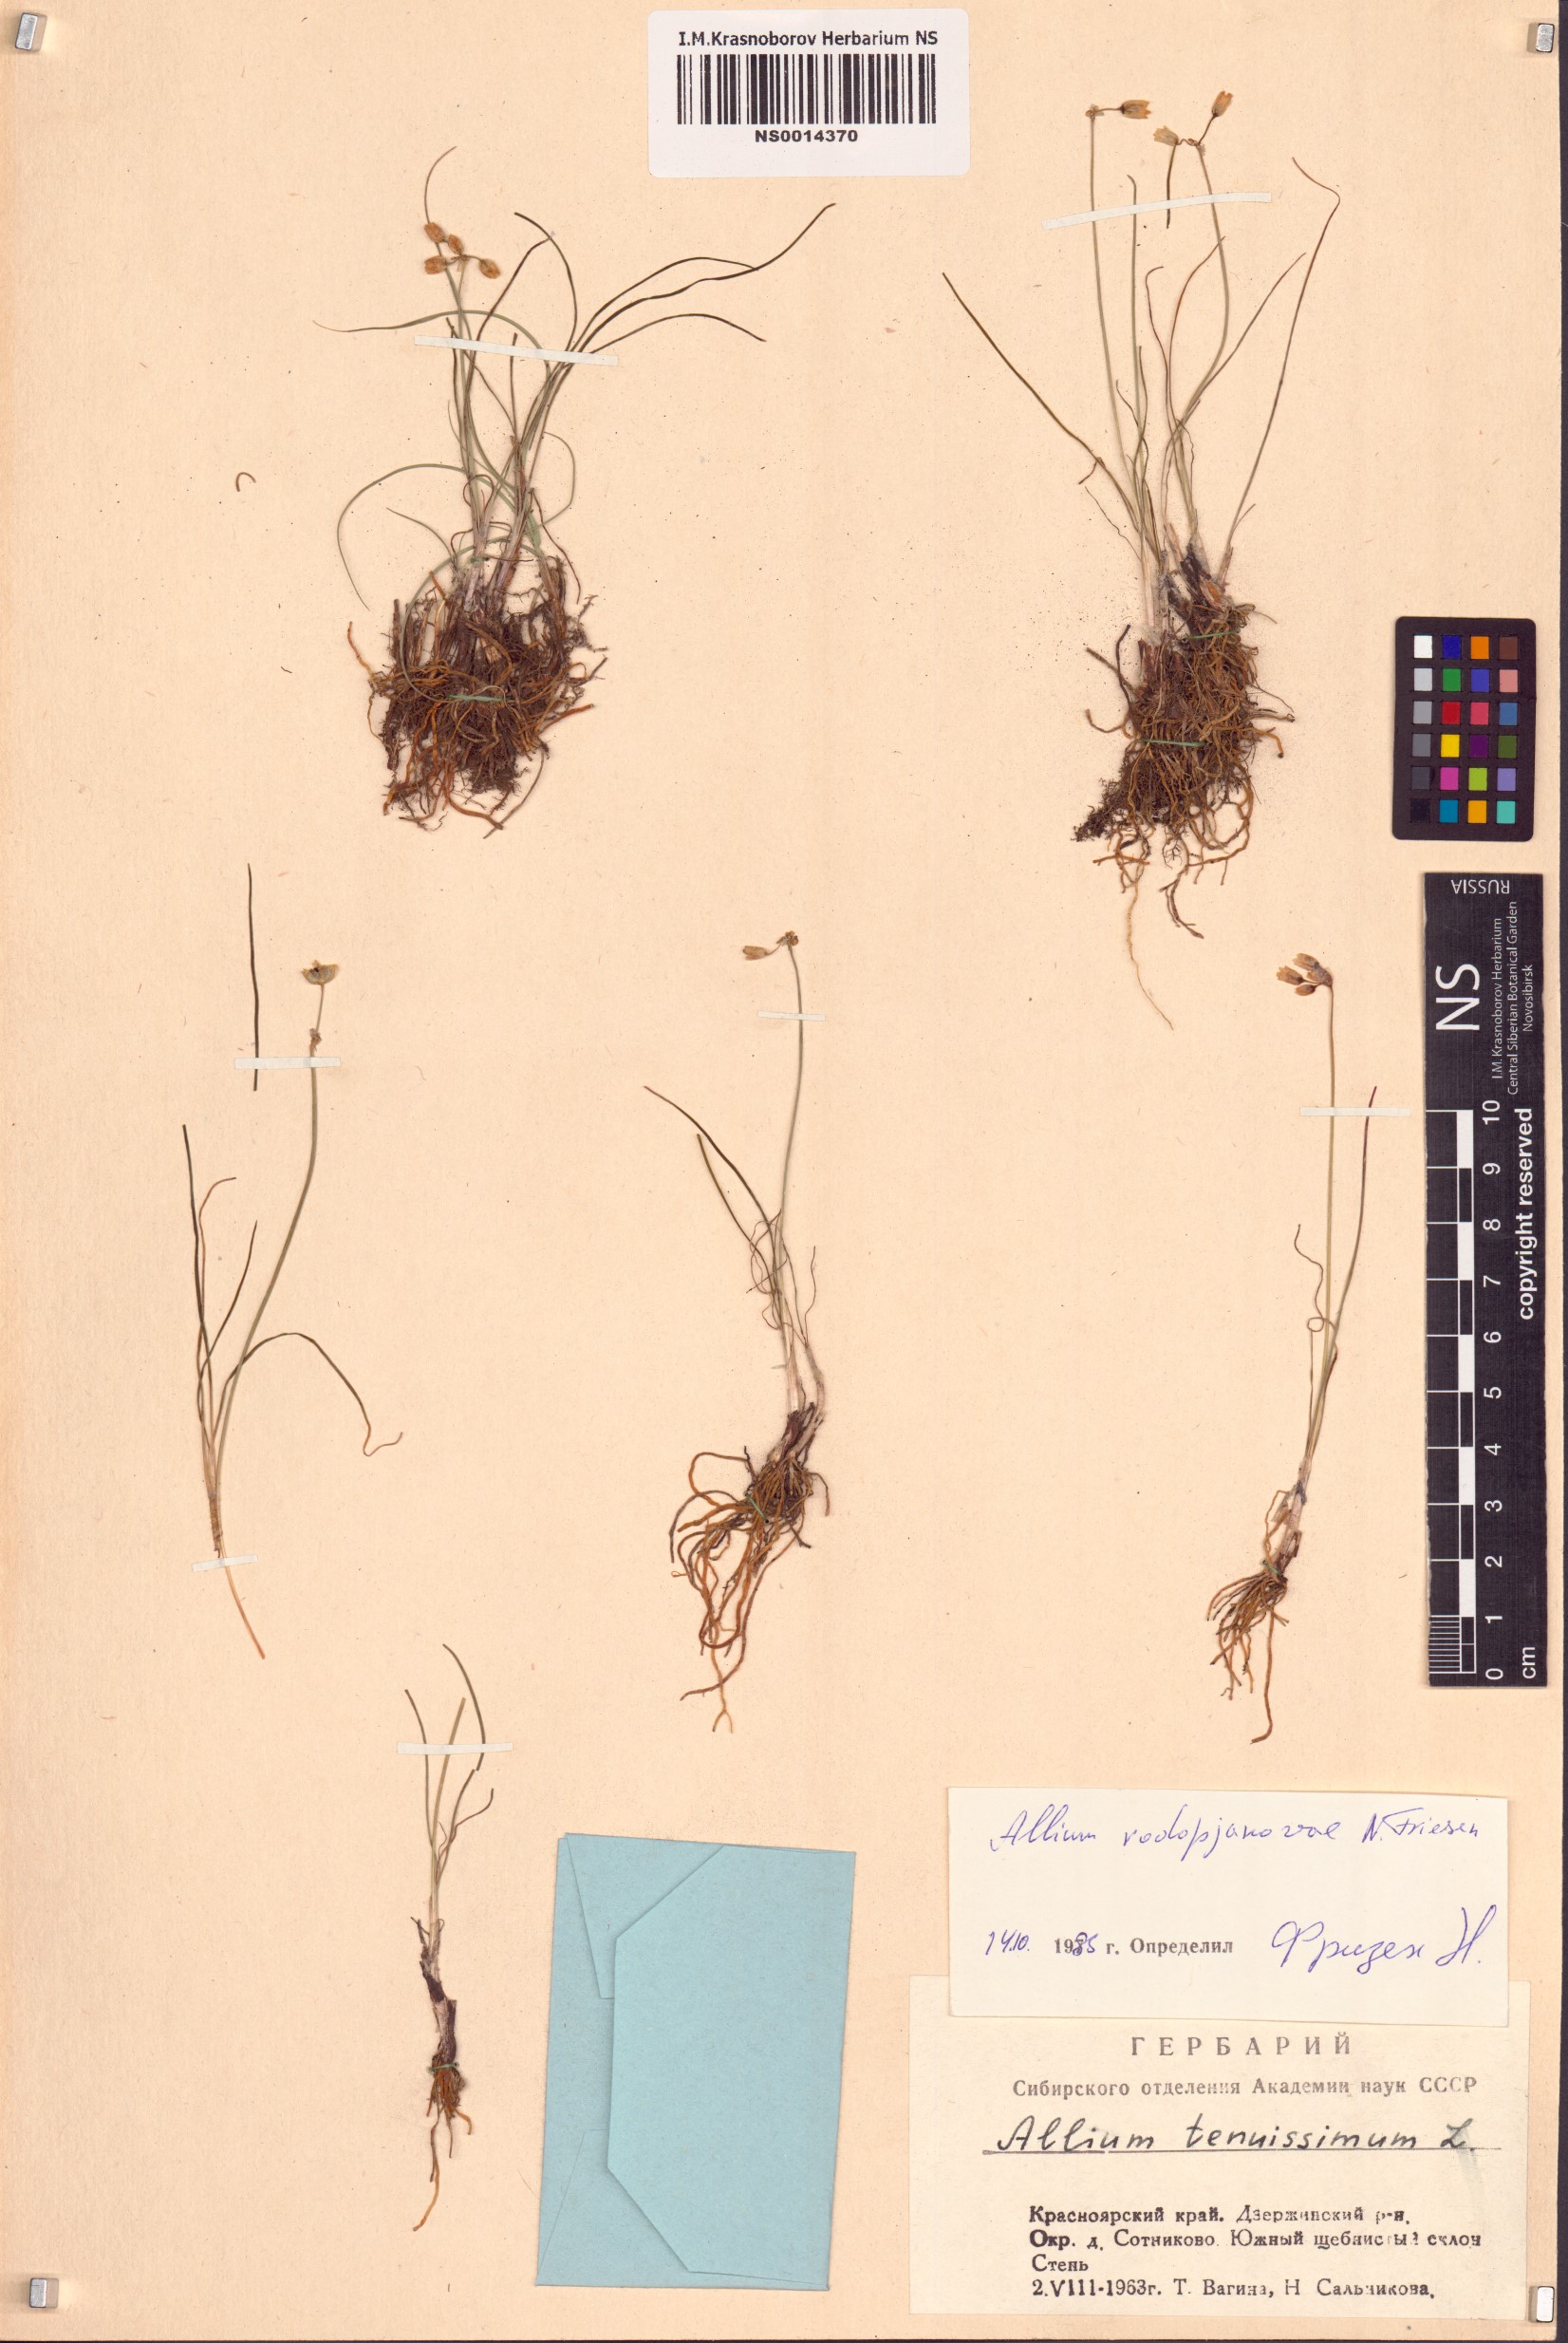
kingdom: Plantae
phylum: Tracheophyta
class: Liliopsida
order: Asparagales
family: Amaryllidaceae
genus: Allium
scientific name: Allium vodopjanovae
